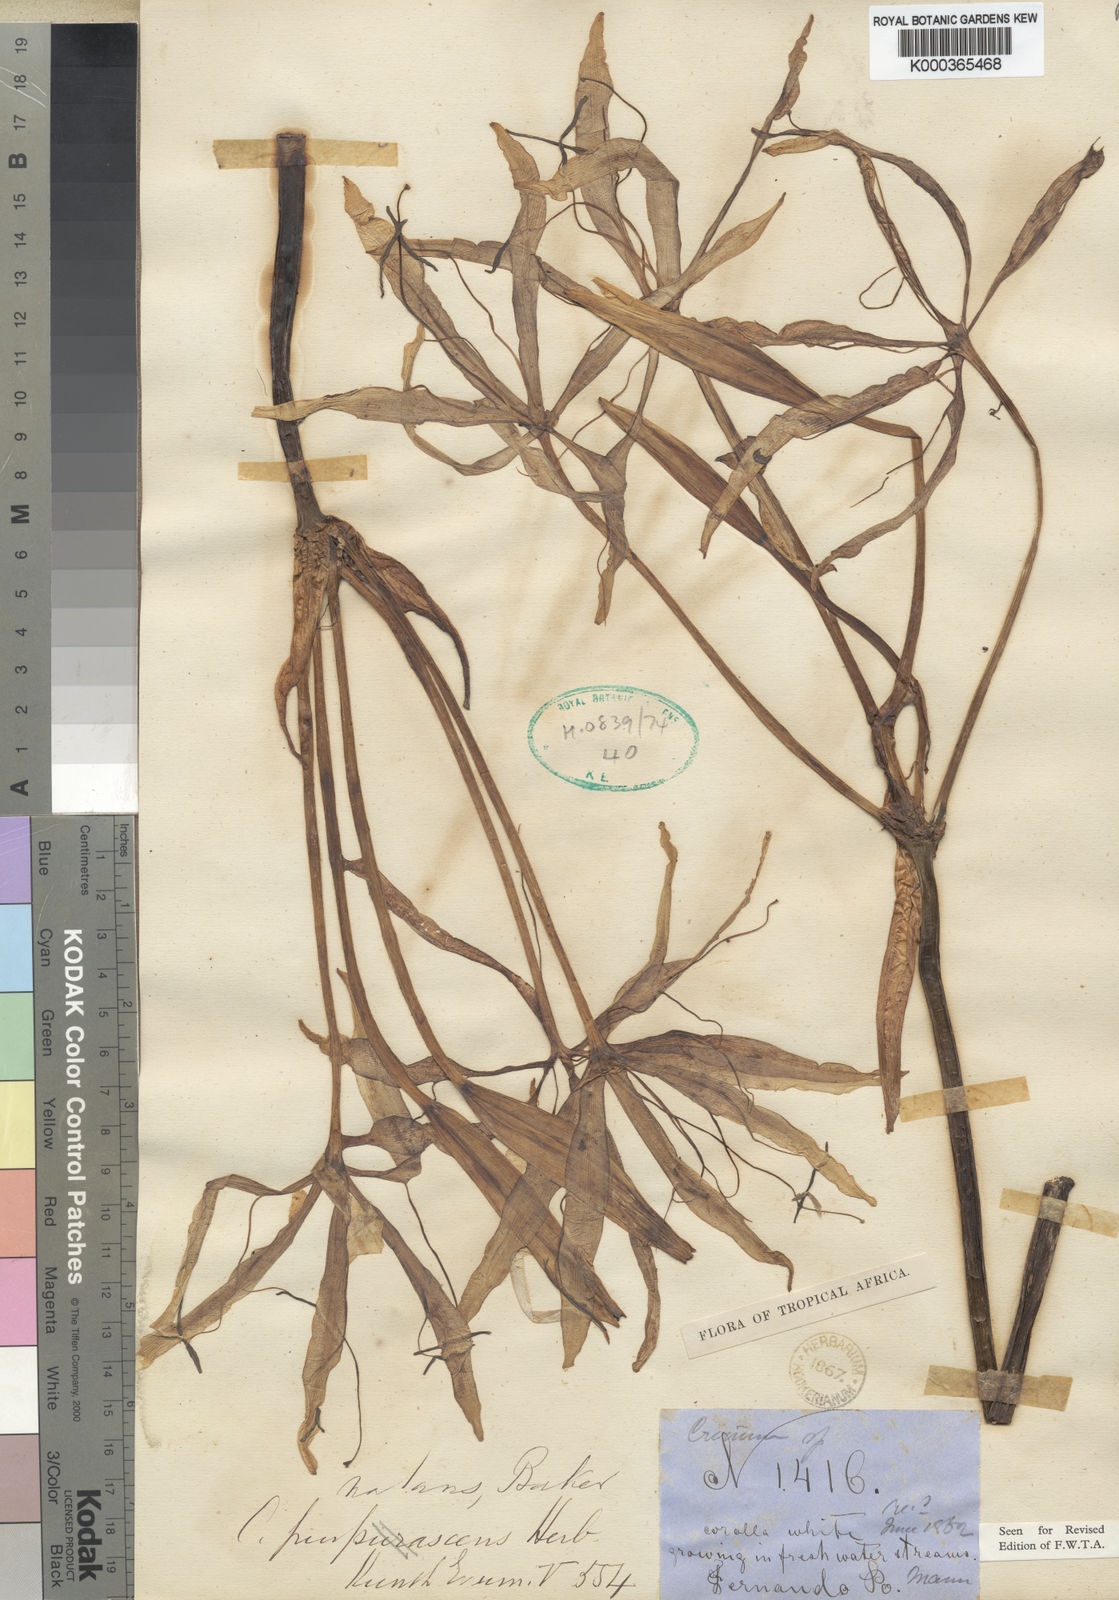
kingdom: Plantae
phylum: Tracheophyta
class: Liliopsida
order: Asparagales
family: Amaryllidaceae
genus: Crinum
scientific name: Crinum natans
